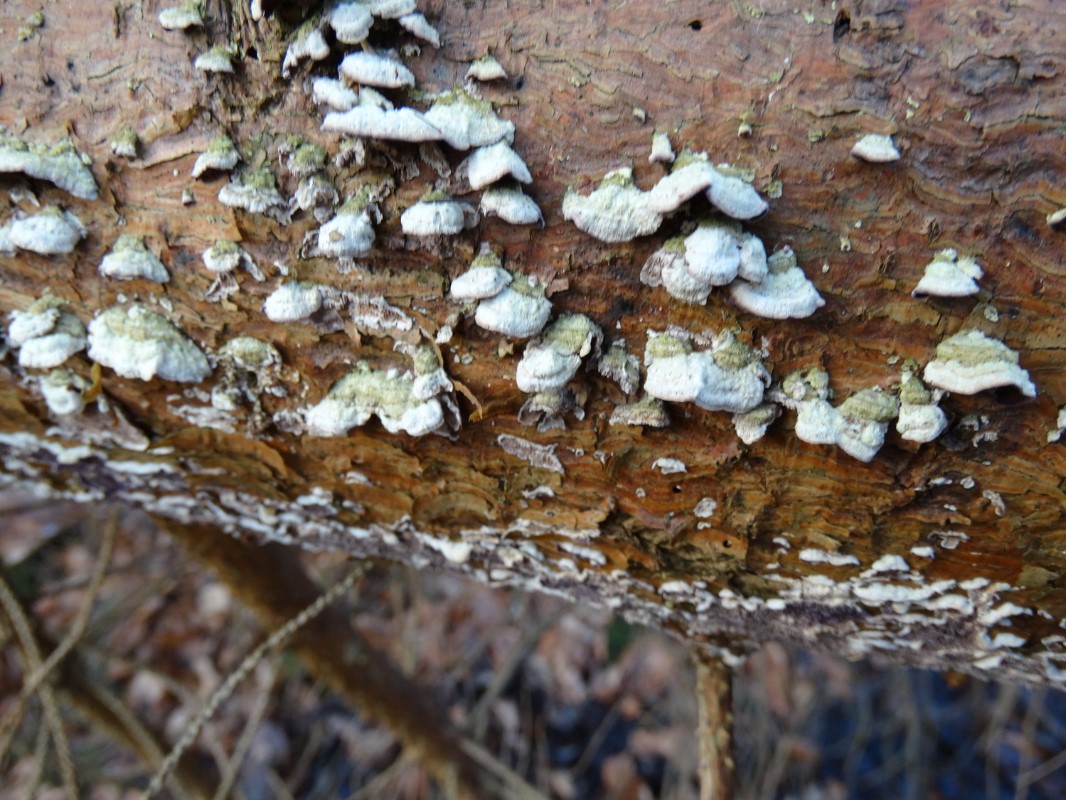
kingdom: Fungi
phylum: Basidiomycota
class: Agaricomycetes
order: Hymenochaetales
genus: Trichaptum
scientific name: Trichaptum abietinum
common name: almindelig violporesvamp
